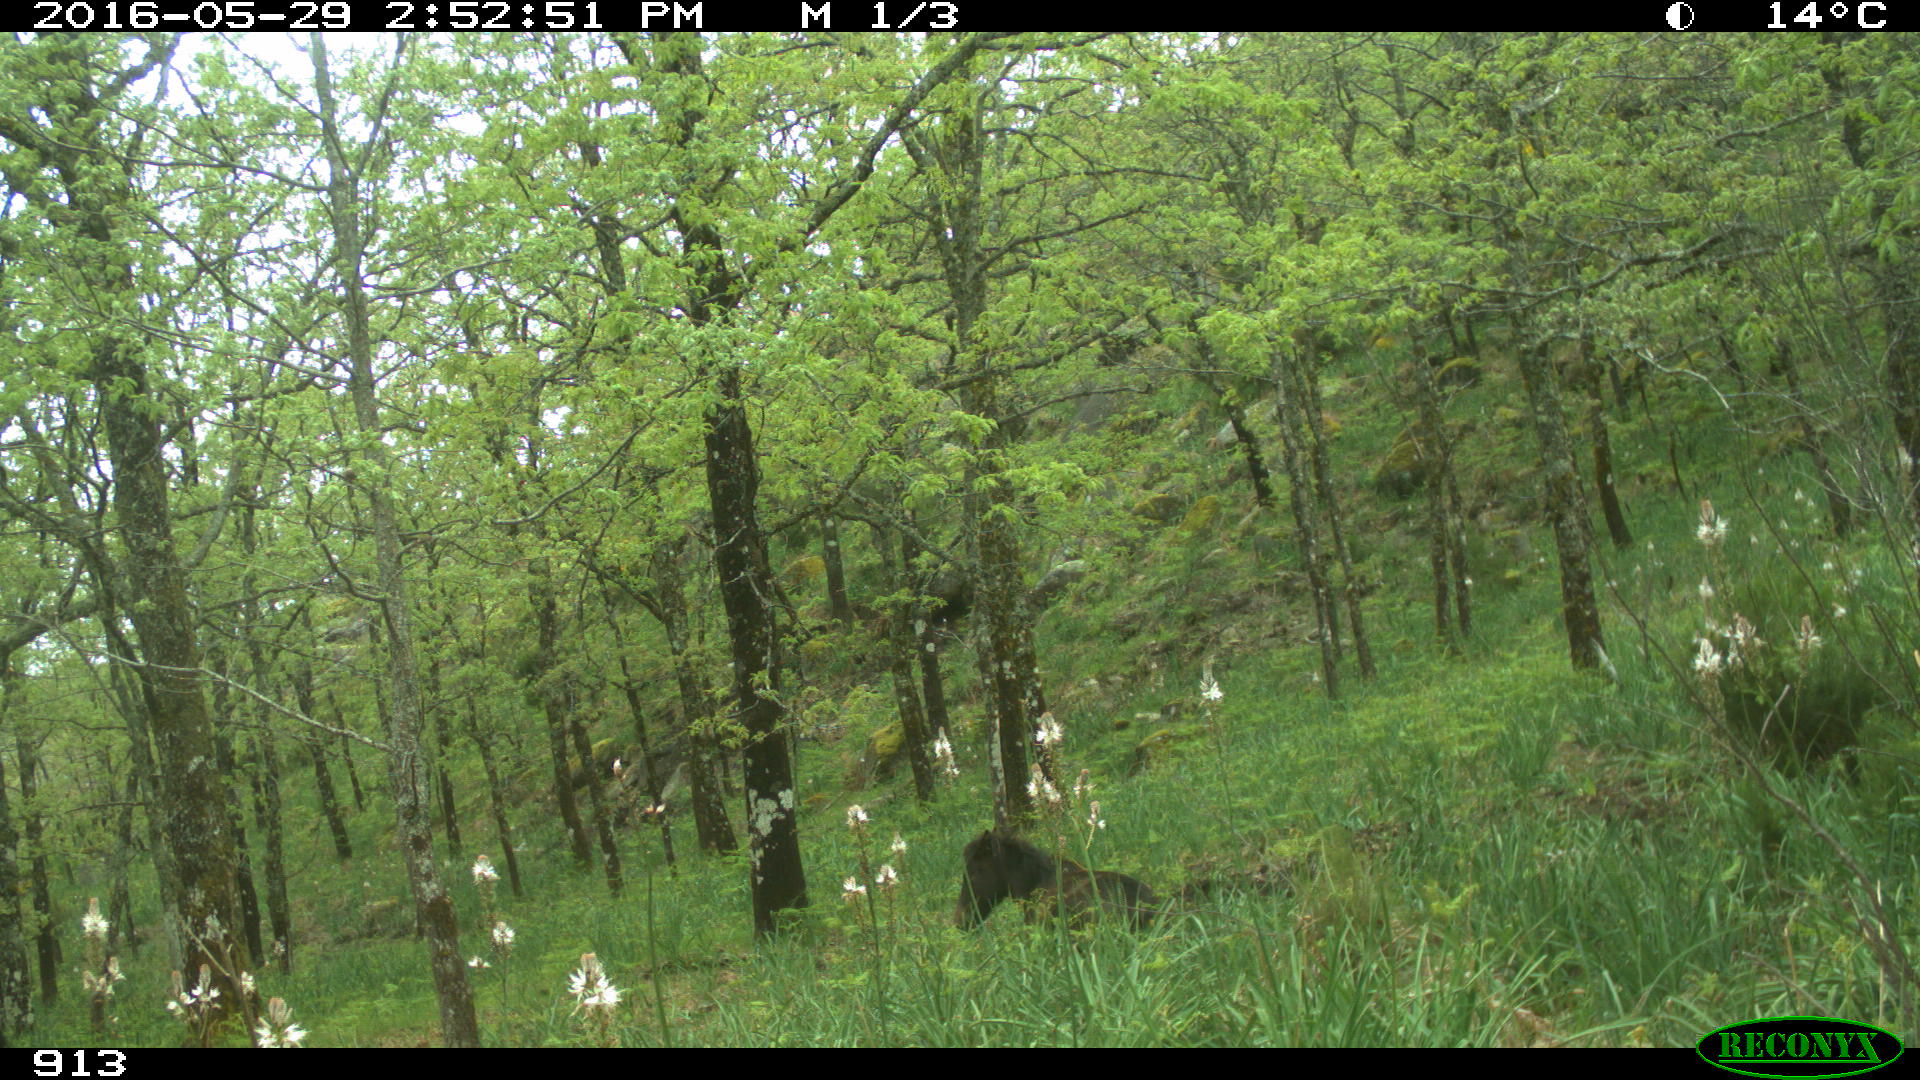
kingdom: Animalia
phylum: Chordata
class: Mammalia
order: Perissodactyla
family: Equidae
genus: Equus
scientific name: Equus caballus
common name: Horse
